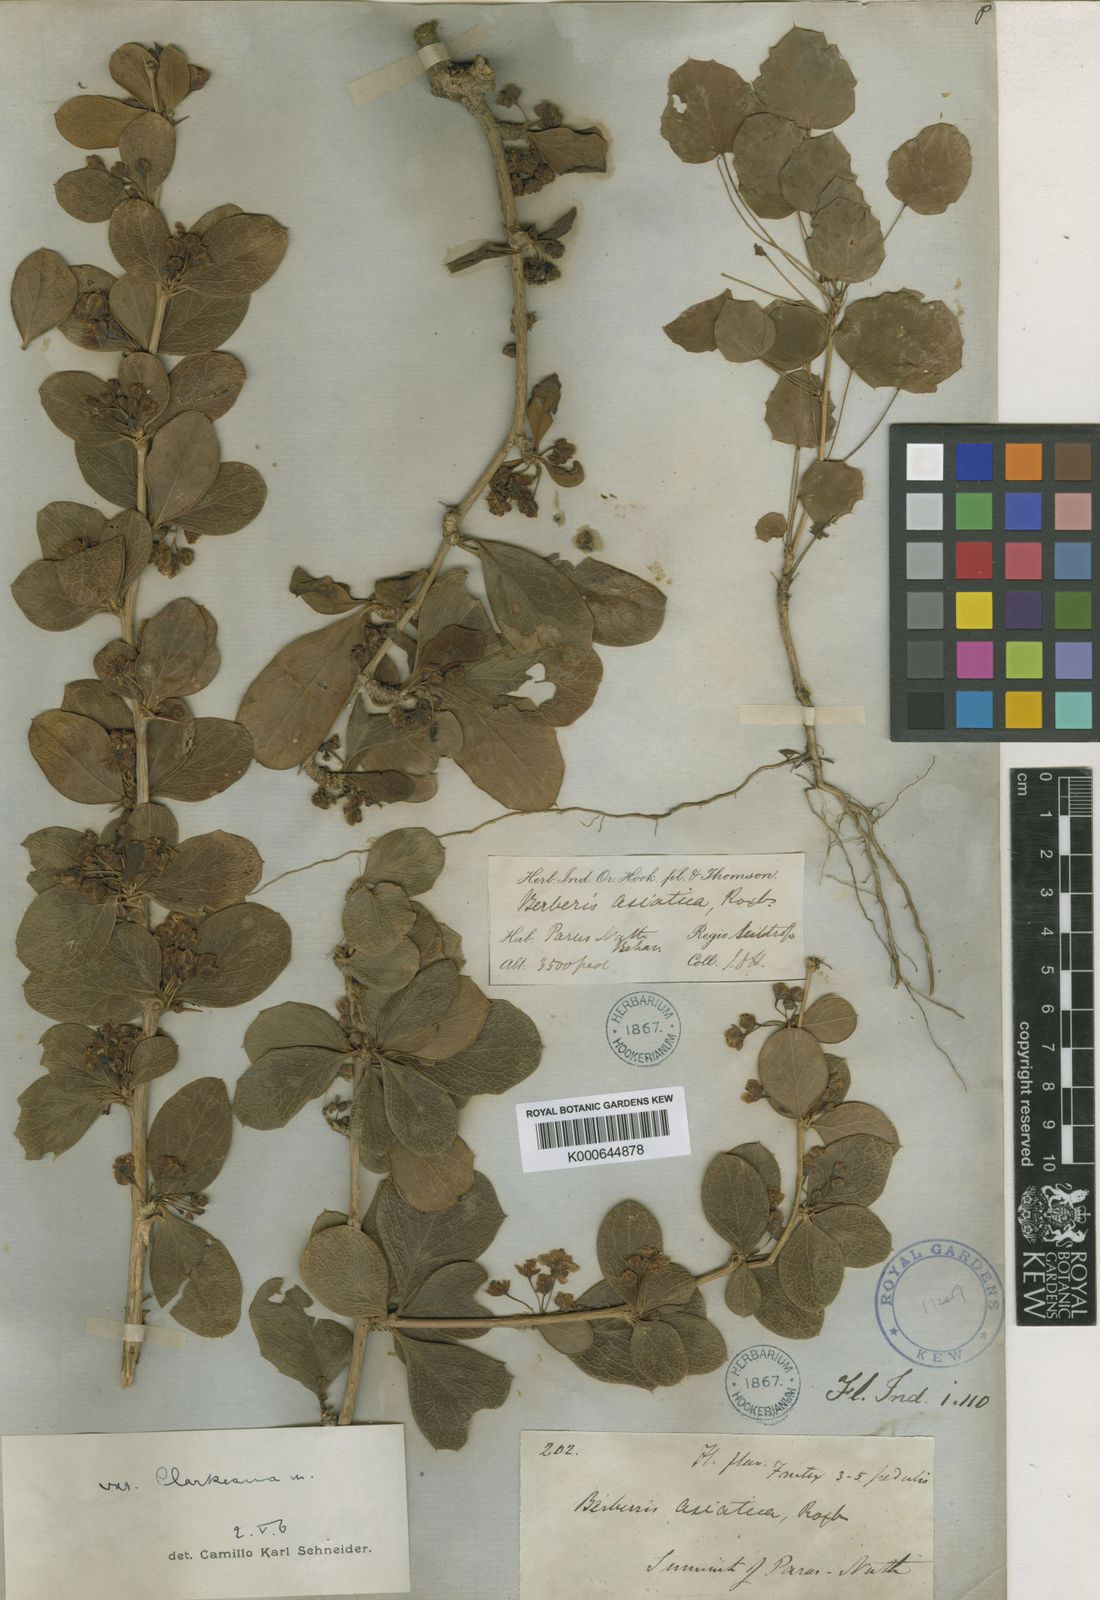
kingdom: Plantae
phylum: Tracheophyta
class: Magnoliopsida
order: Ranunculales
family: Berberidaceae
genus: Berberis
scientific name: Berberis
